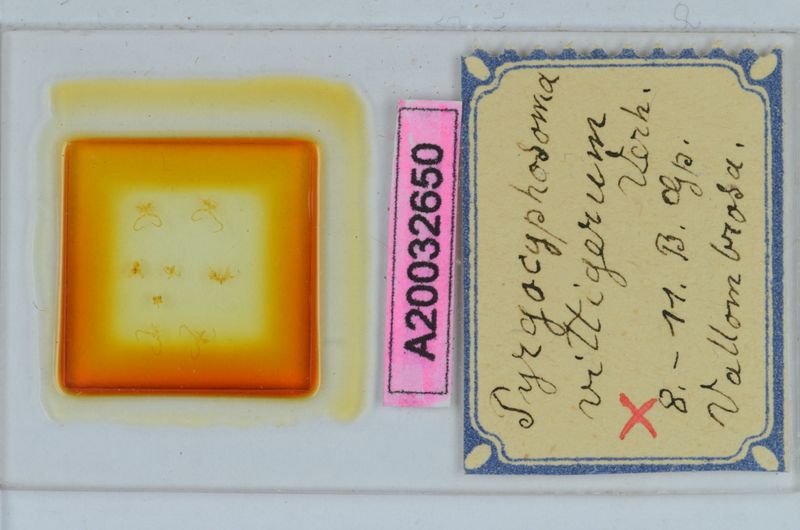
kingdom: Animalia
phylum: Arthropoda
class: Diplopoda
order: Chordeumatida
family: Craspedosomatidae
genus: Pyrgocyphosoma
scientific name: Pyrgocyphosoma vallombrosae
